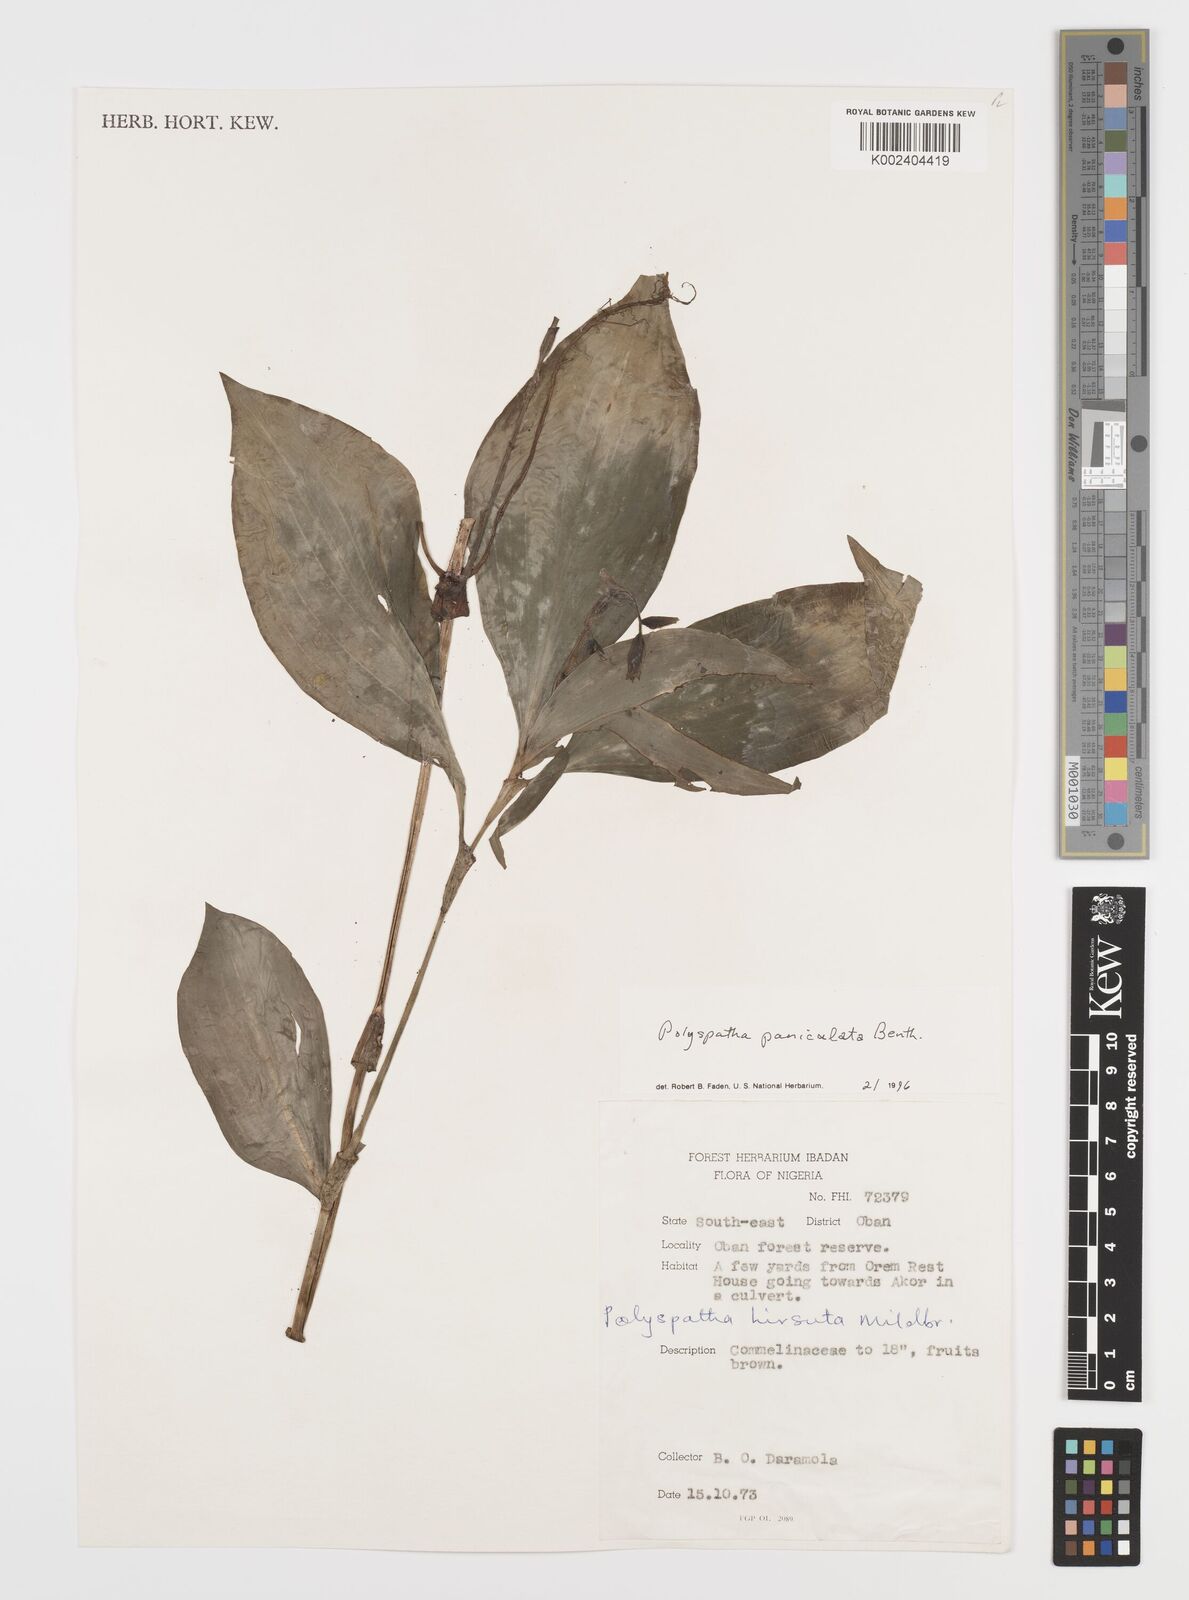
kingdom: Plantae
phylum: Tracheophyta
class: Liliopsida
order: Commelinales
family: Commelinaceae
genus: Polyspatha
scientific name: Polyspatha paniculata
